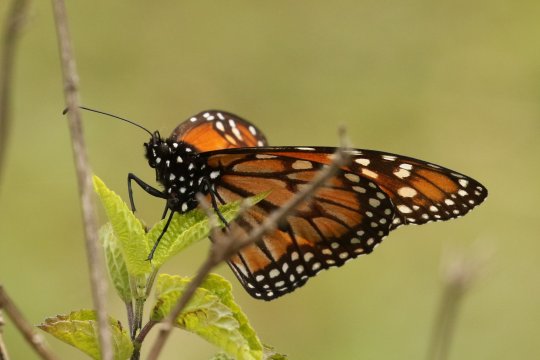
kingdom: Animalia
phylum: Arthropoda
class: Insecta
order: Lepidoptera
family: Nymphalidae
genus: Danaus
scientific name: Danaus erippus
